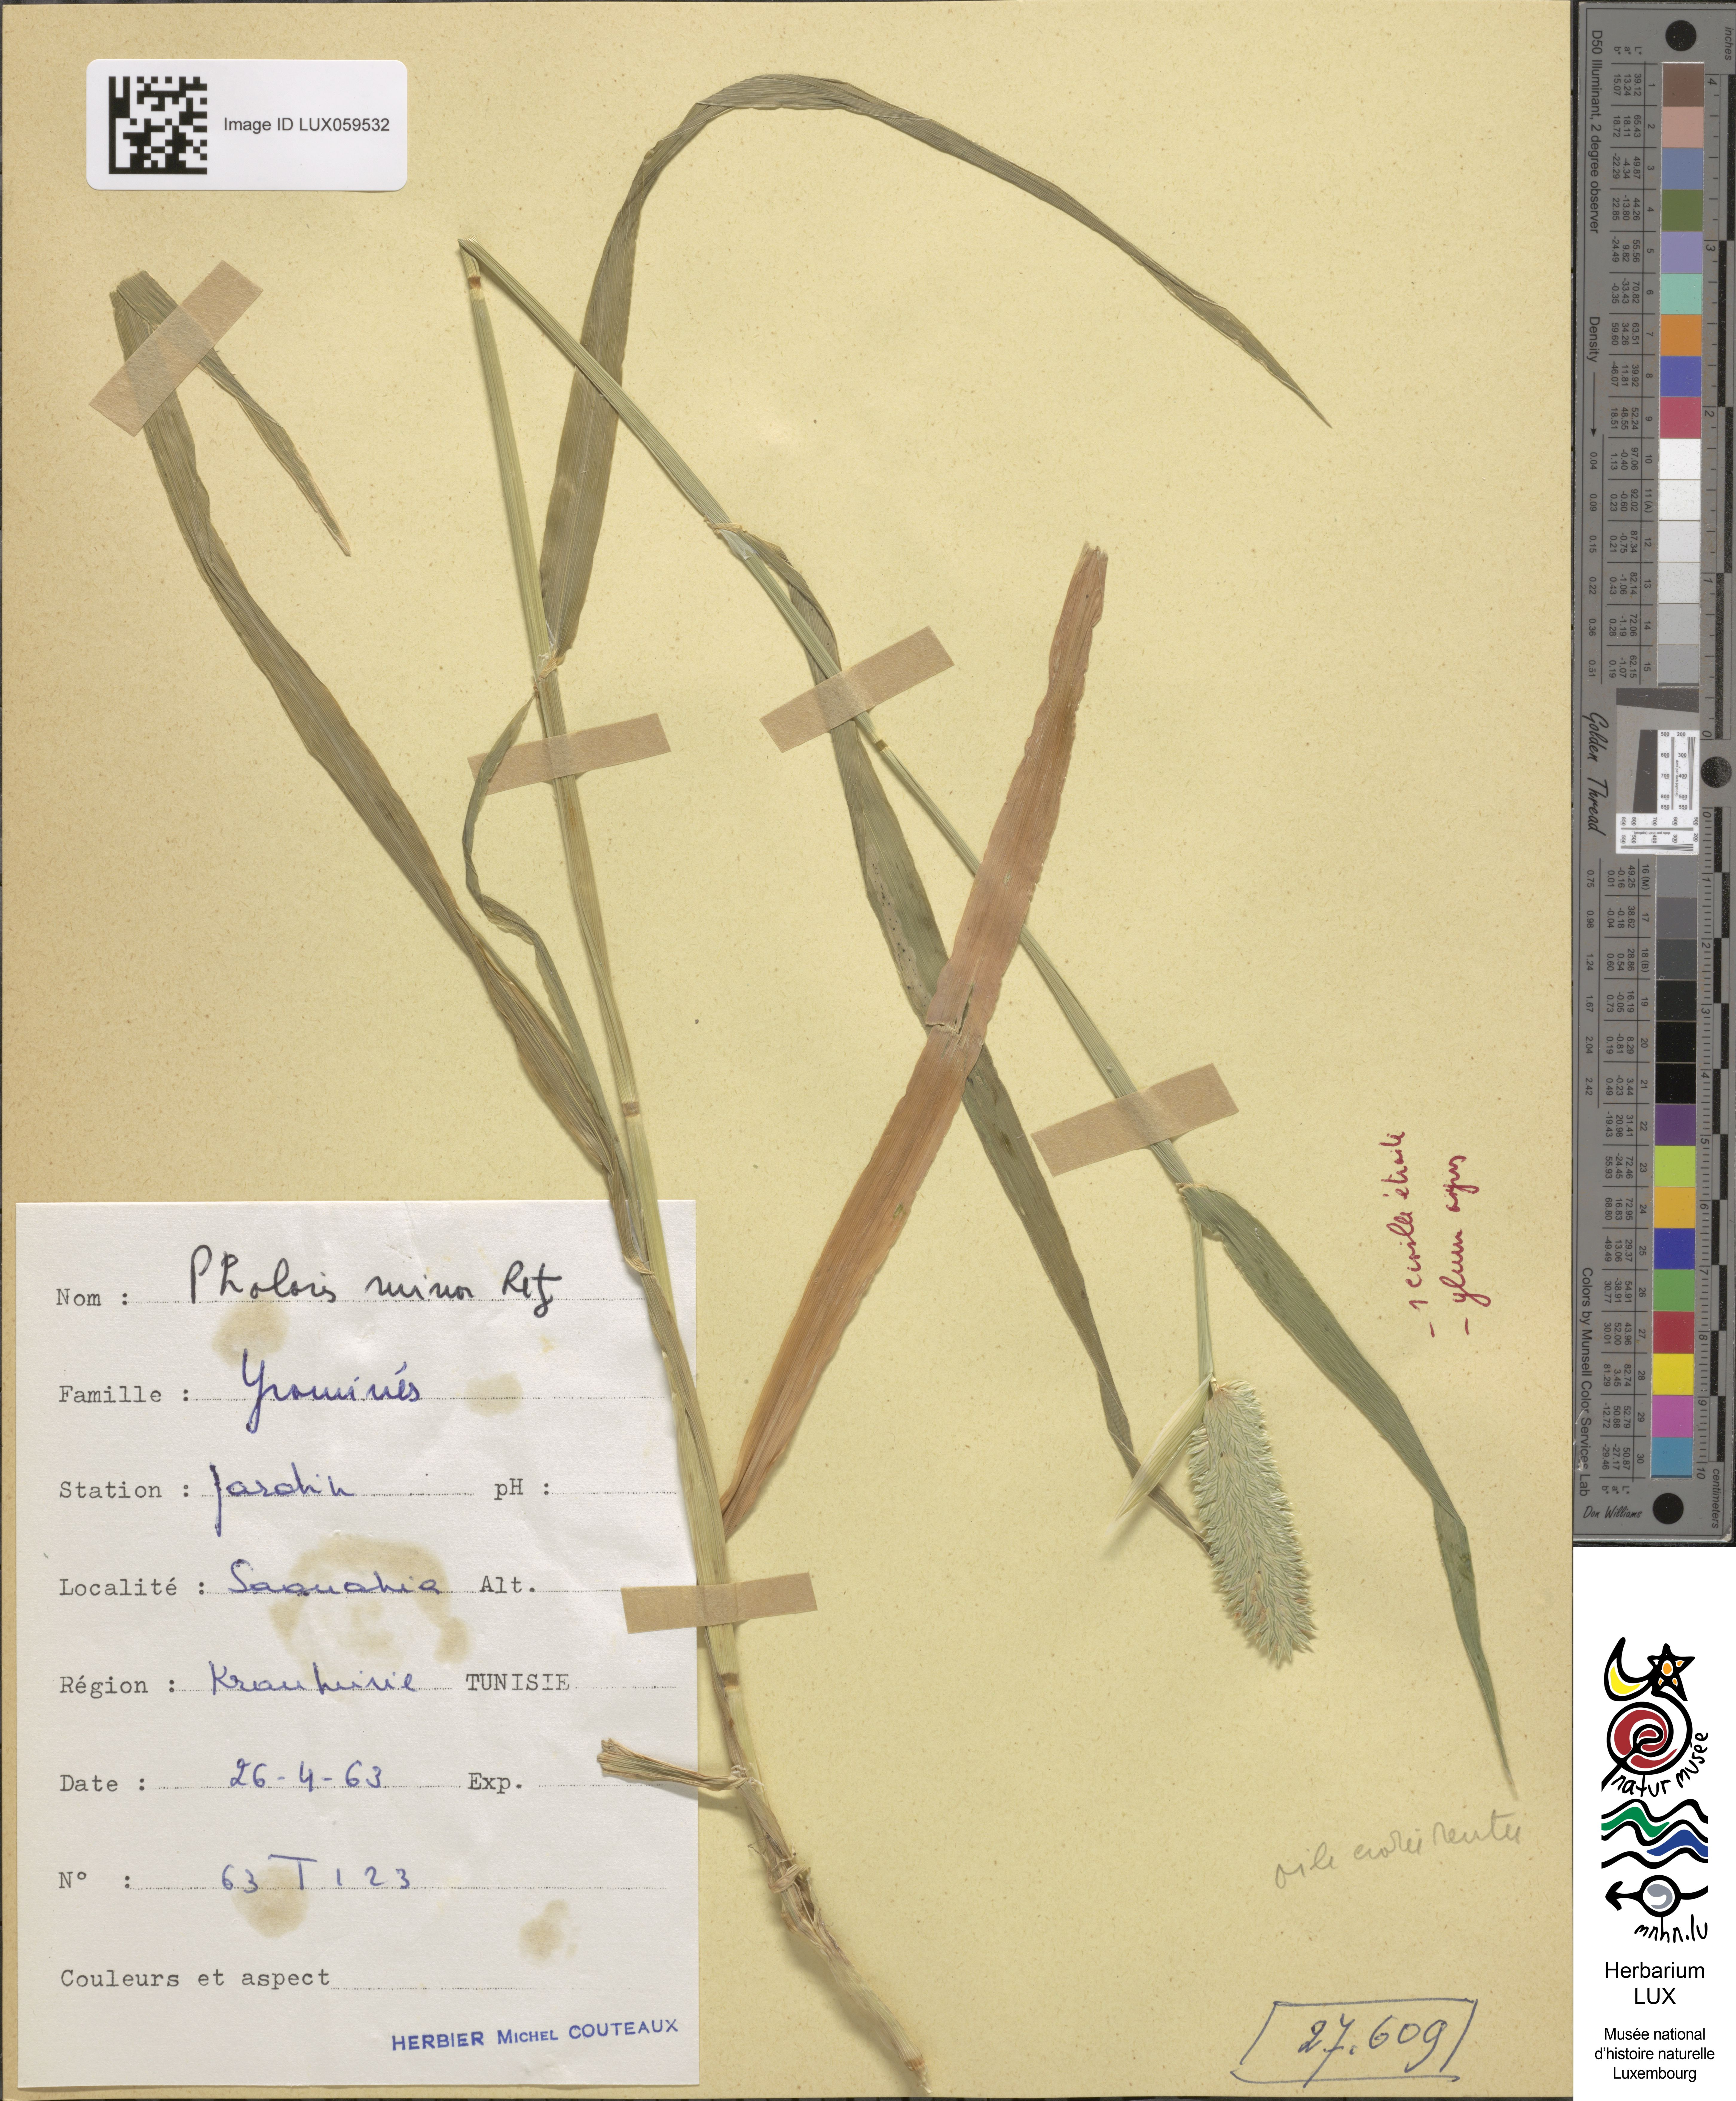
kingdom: Plantae
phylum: Tracheophyta
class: Liliopsida
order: Poales
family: Poaceae
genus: Phalaris
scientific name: Phalaris minor
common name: Littleseed canarygrass
